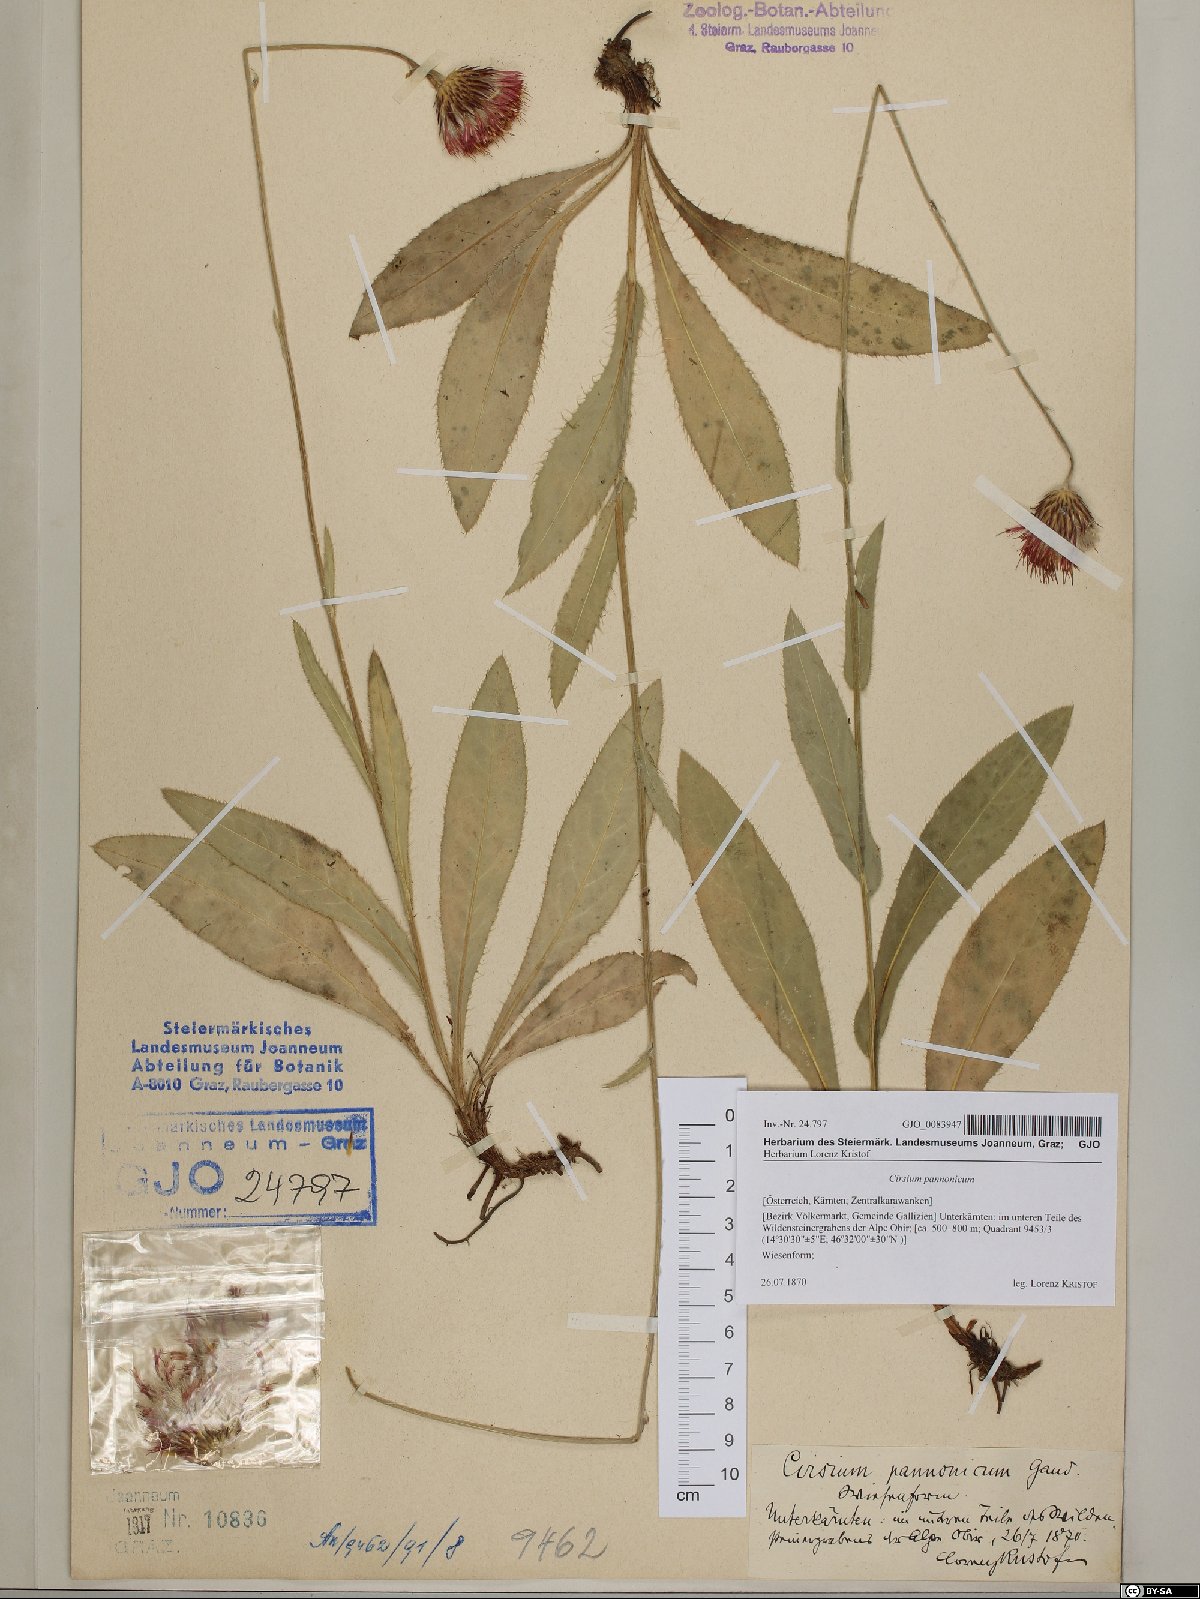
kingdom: Plantae
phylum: Tracheophyta
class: Magnoliopsida
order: Asterales
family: Asteraceae
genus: Cirsium
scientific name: Cirsium pannonicum
